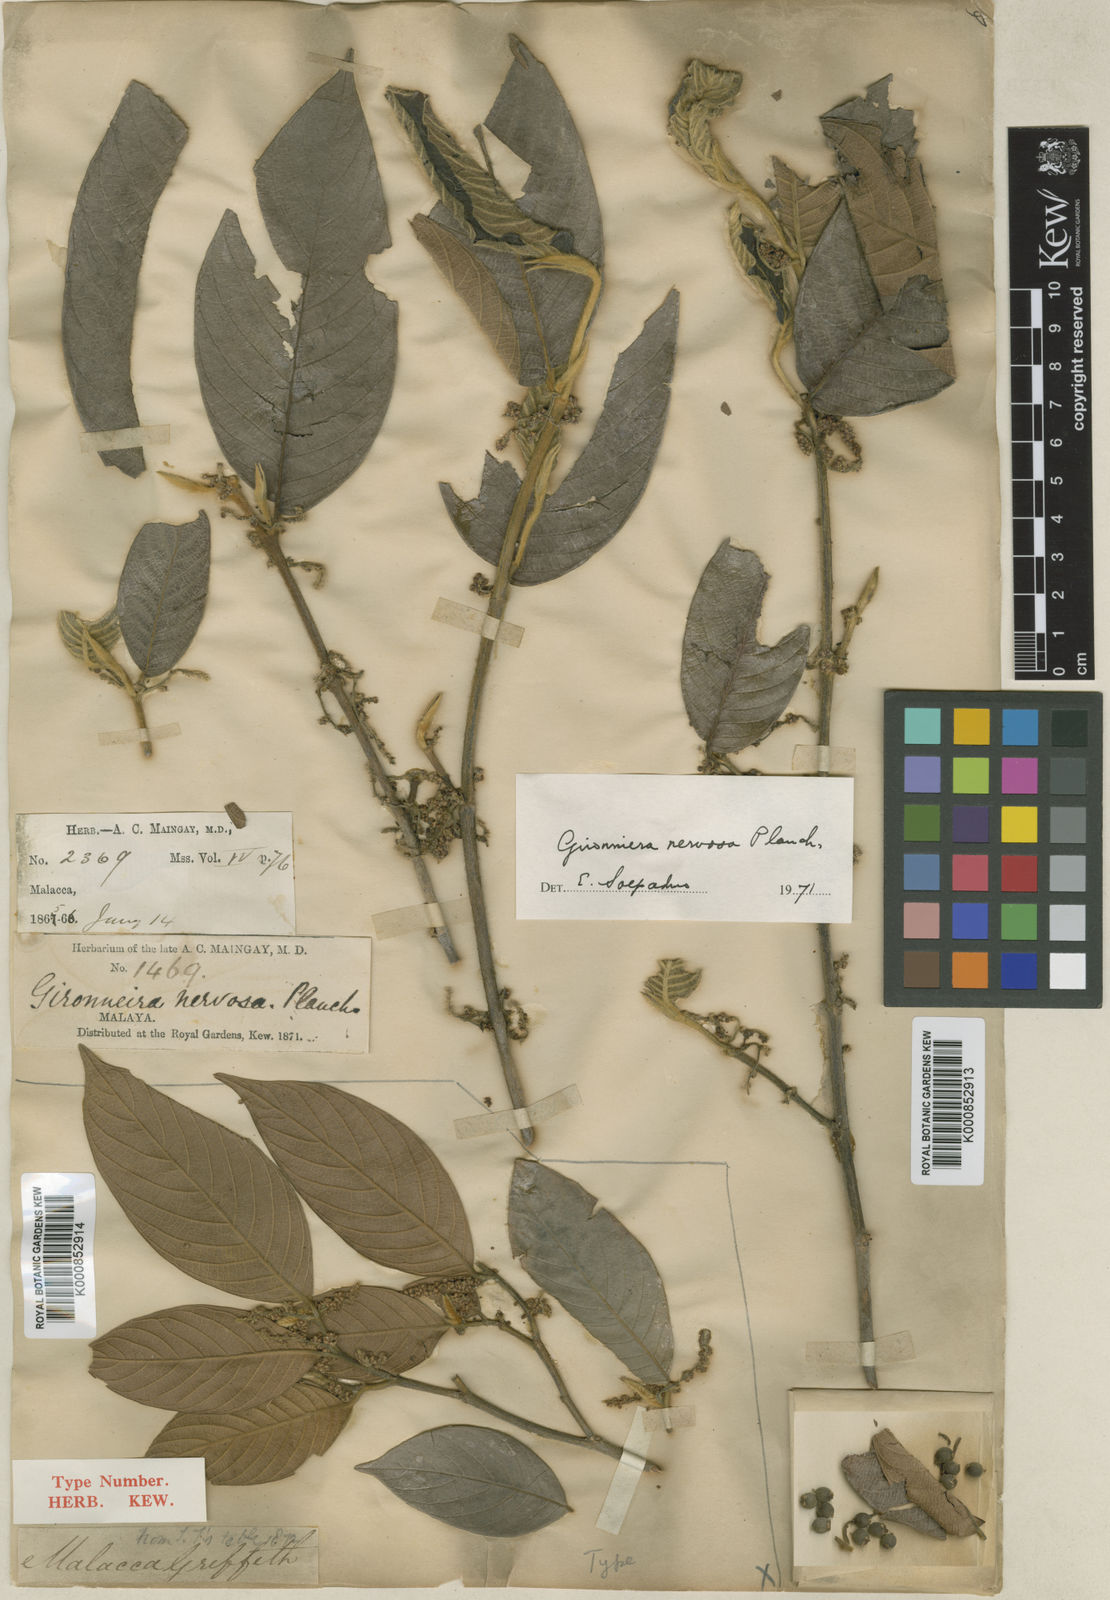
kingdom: Plantae
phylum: Tracheophyta
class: Magnoliopsida
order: Rosales
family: Cannabaceae
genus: Gironniera
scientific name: Gironniera nervosa
